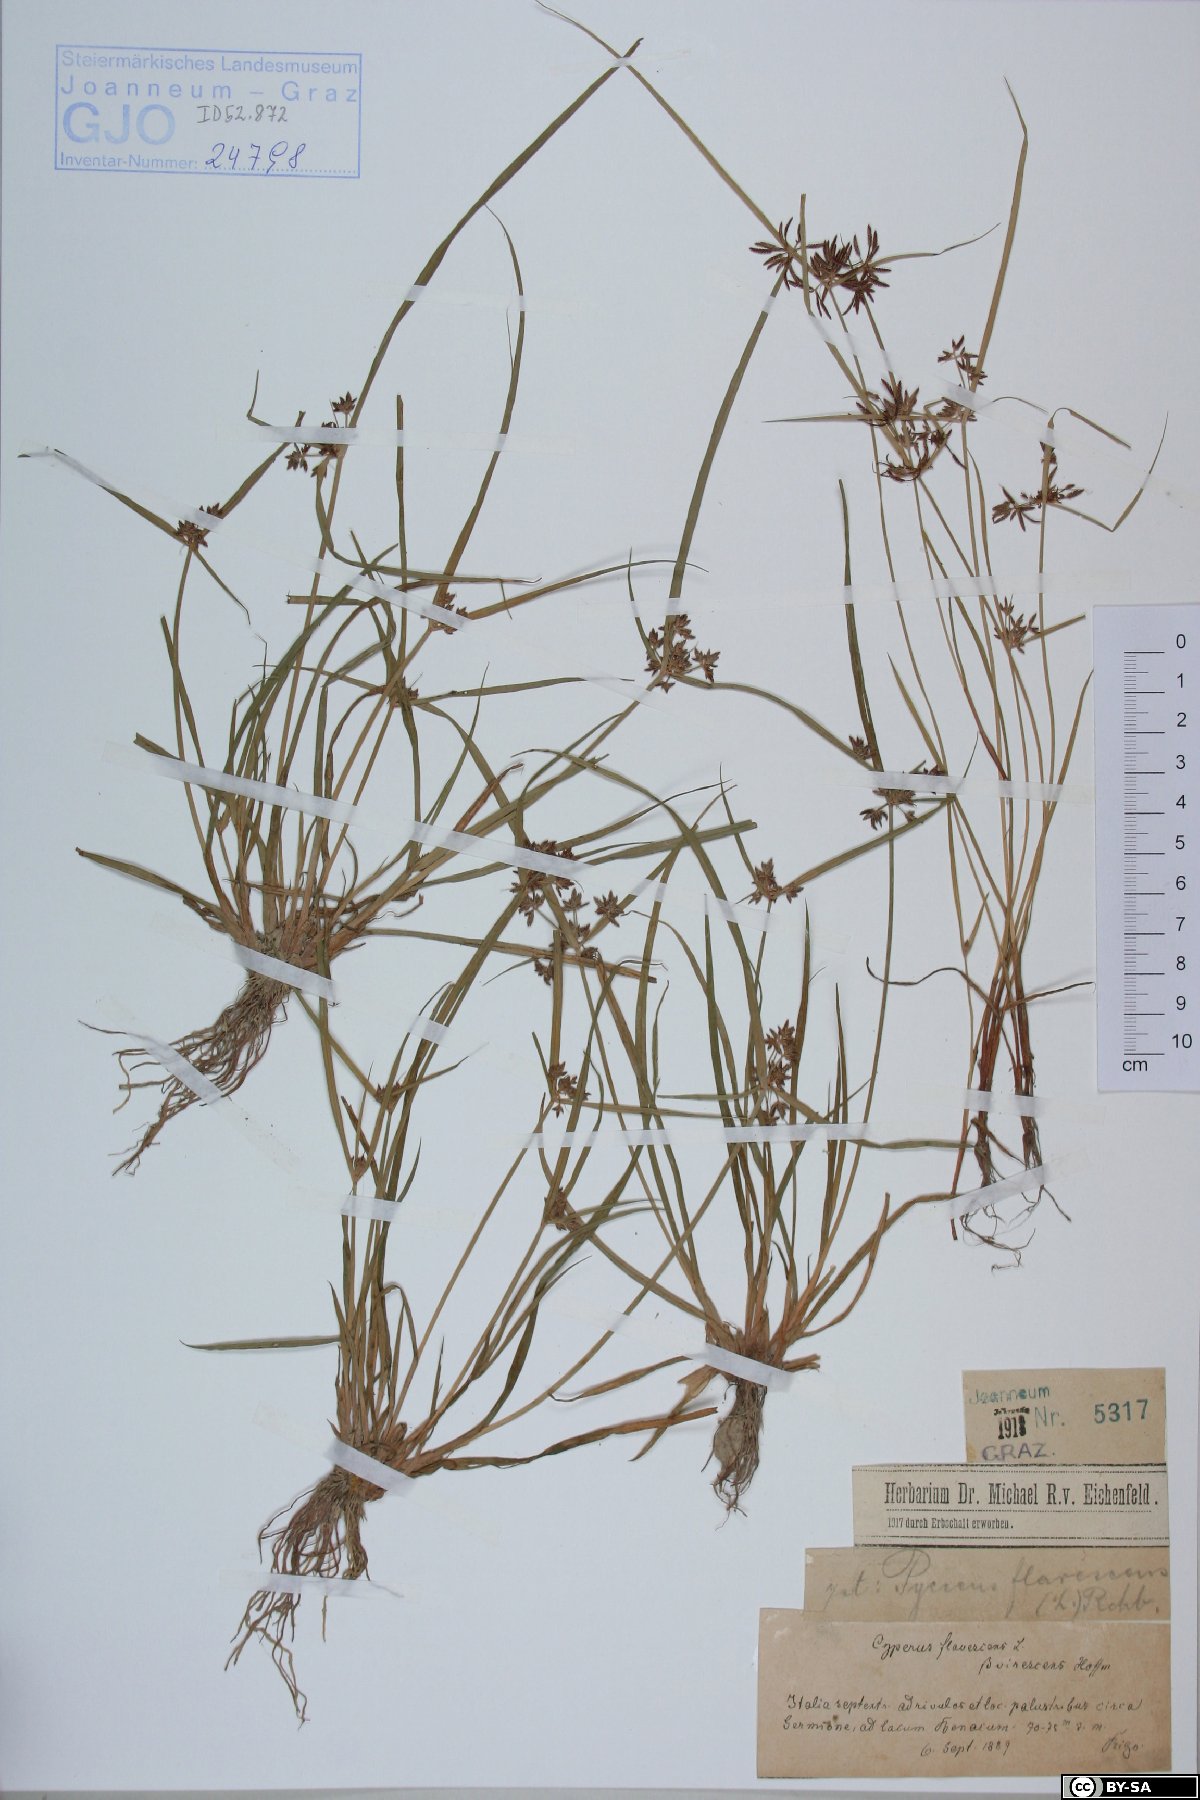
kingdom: Plantae
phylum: Tracheophyta
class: Liliopsida
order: Poales
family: Cyperaceae
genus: Cyperus
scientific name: Cyperus flavescens
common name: Yellow galingale
